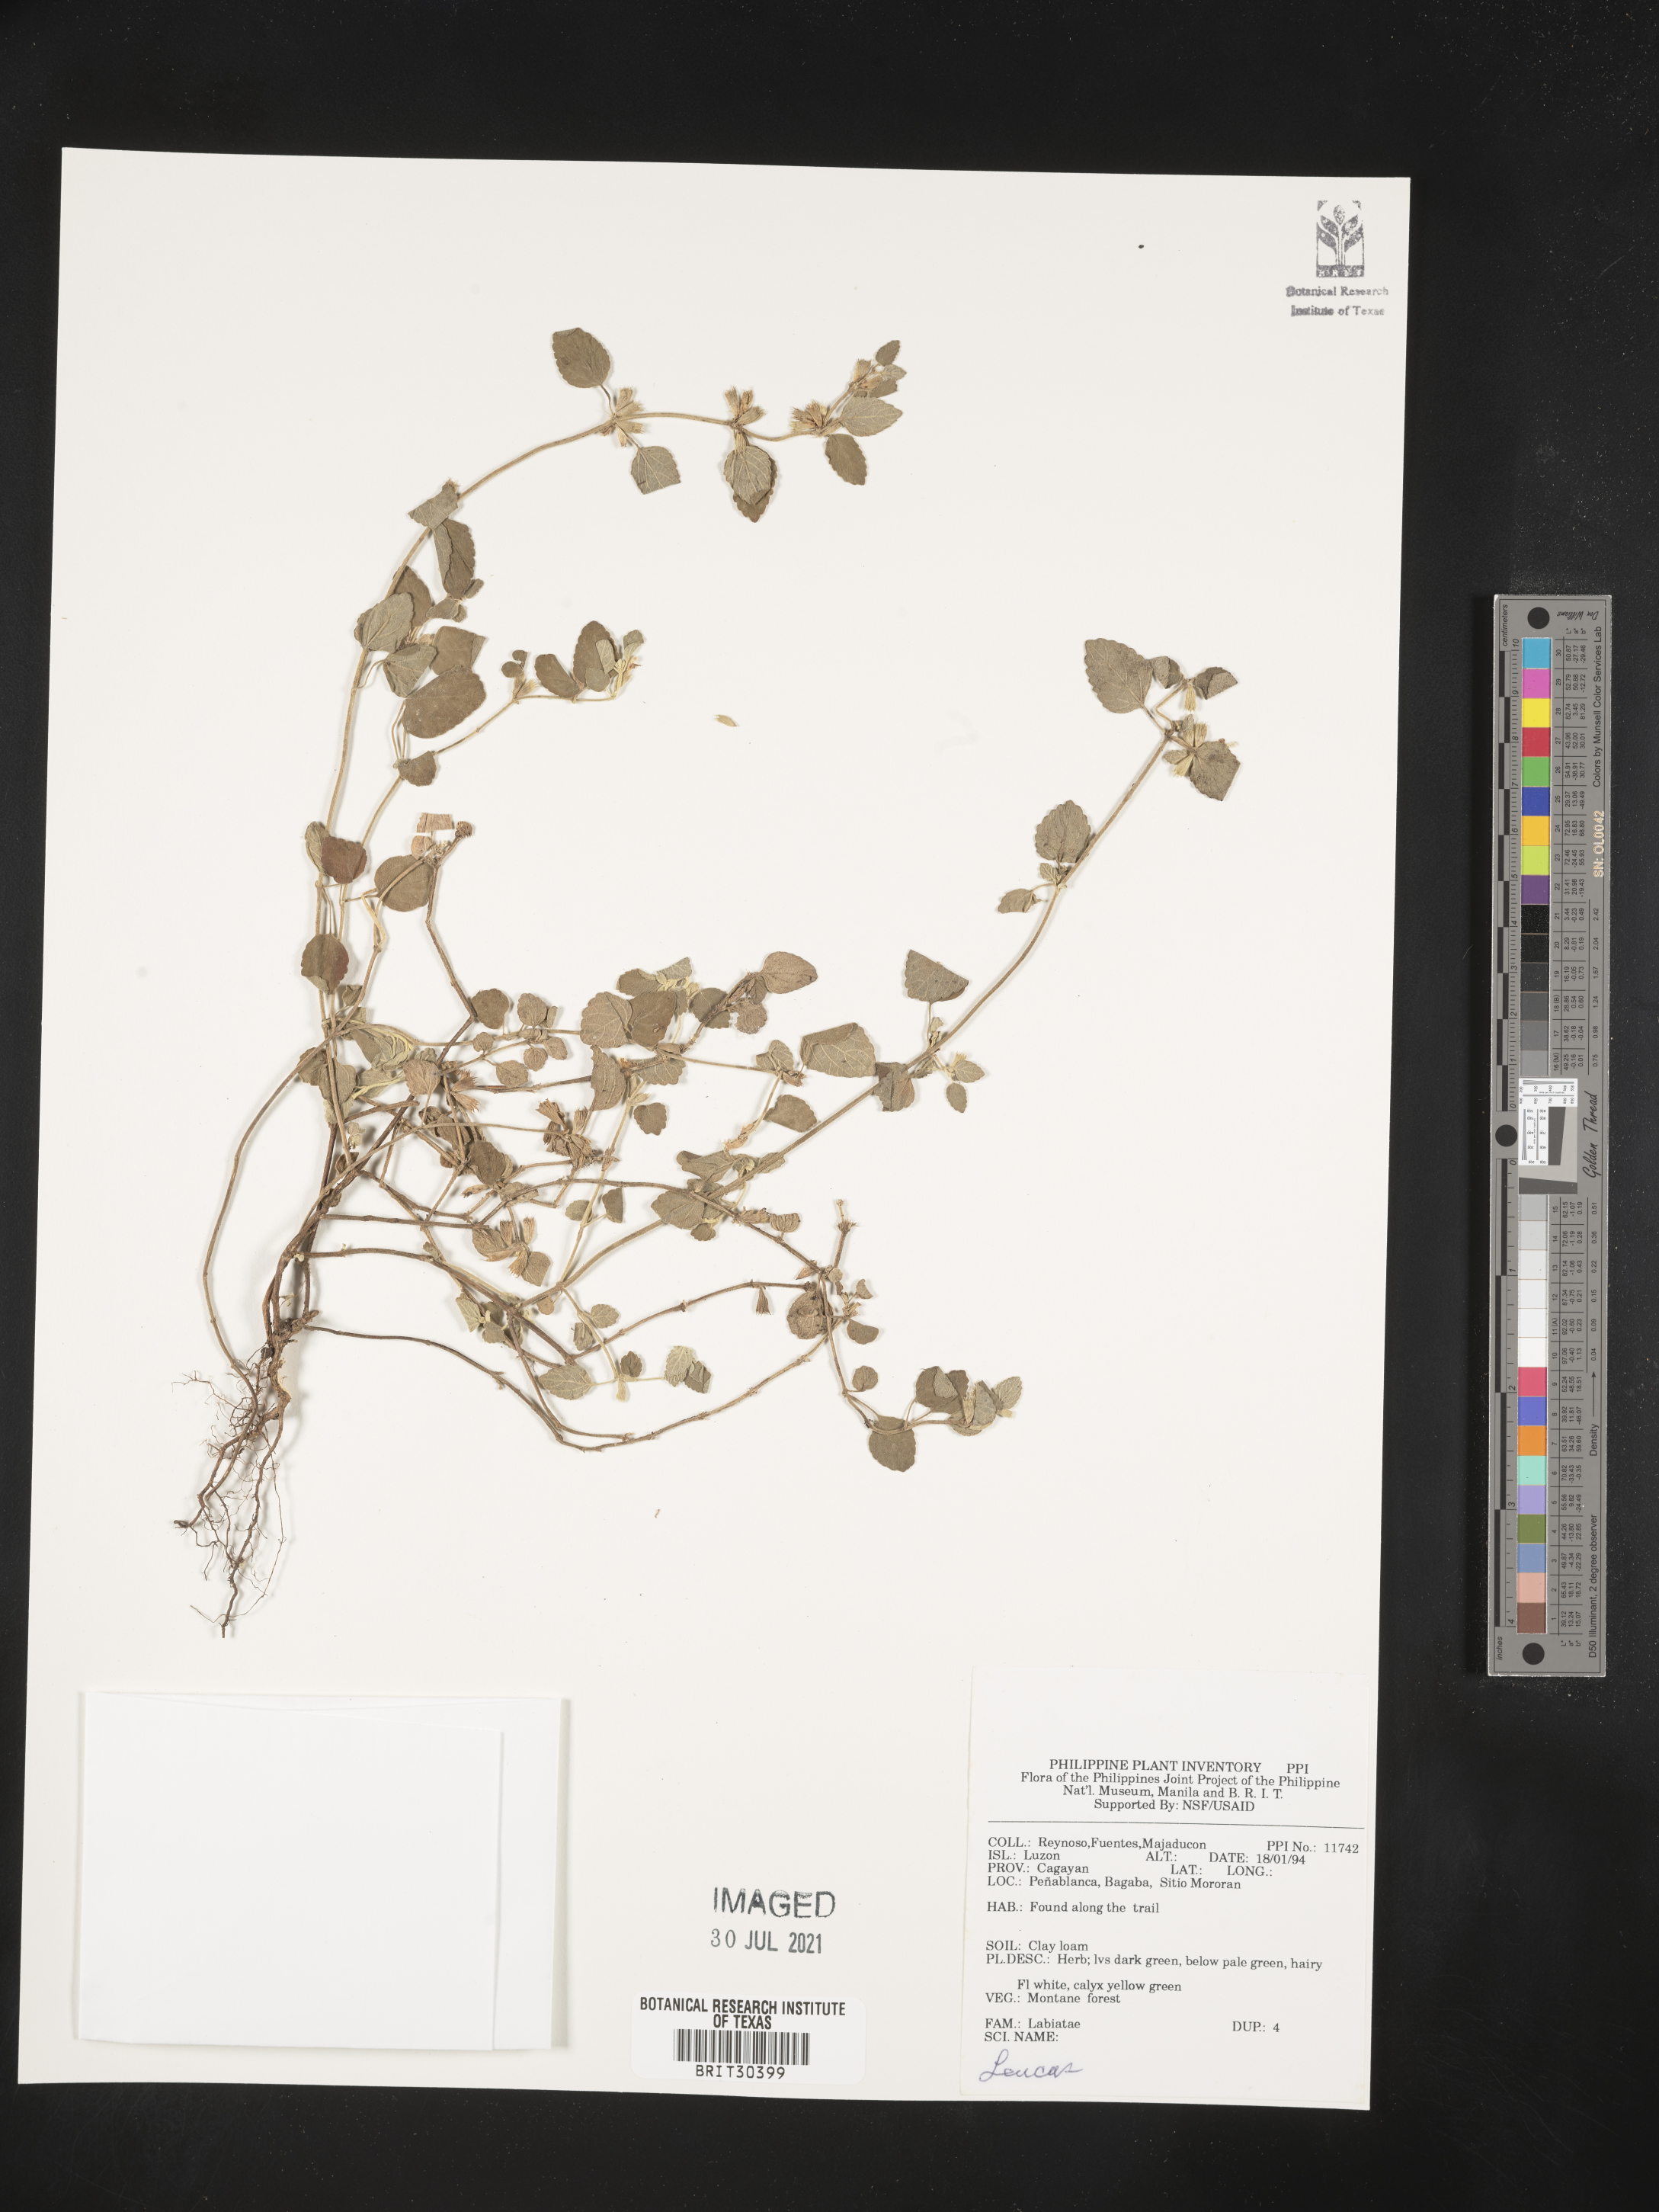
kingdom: Plantae
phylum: Tracheophyta
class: Magnoliopsida
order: Lamiales
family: Lamiaceae
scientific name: Lamiaceae
